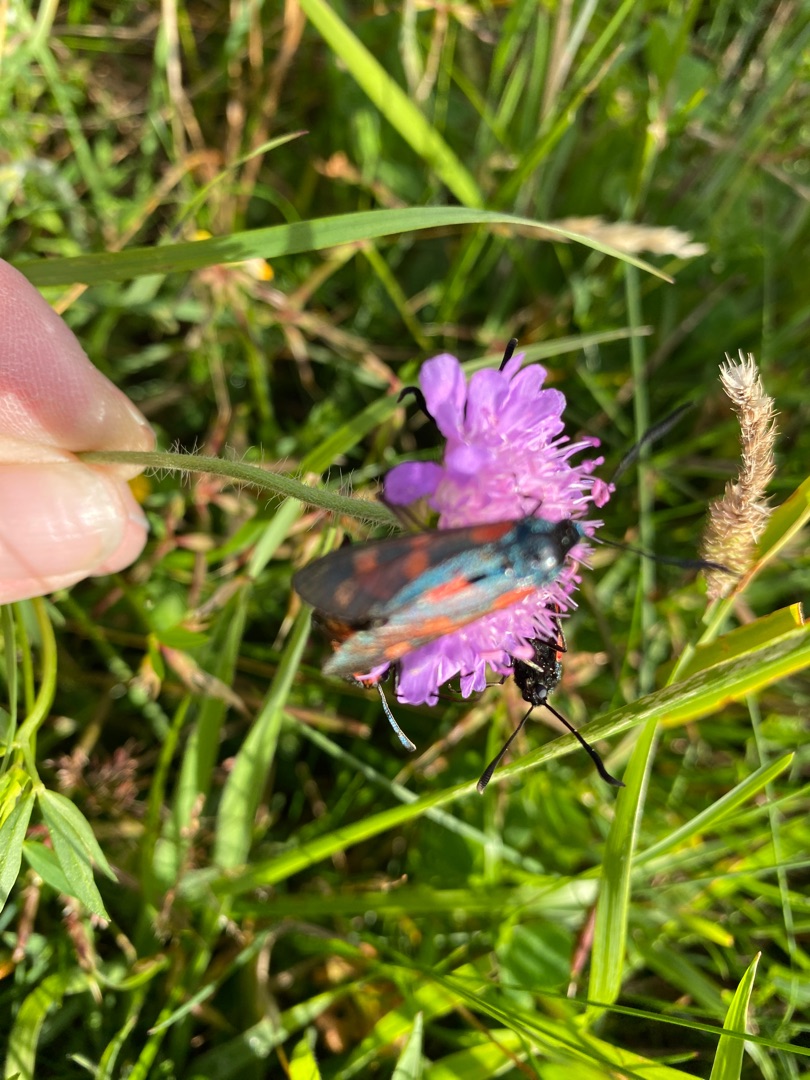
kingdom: Plantae
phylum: Tracheophyta
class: Magnoliopsida
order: Dipsacales
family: Caprifoliaceae
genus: Knautia
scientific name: Knautia arvensis
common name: Blåhat
